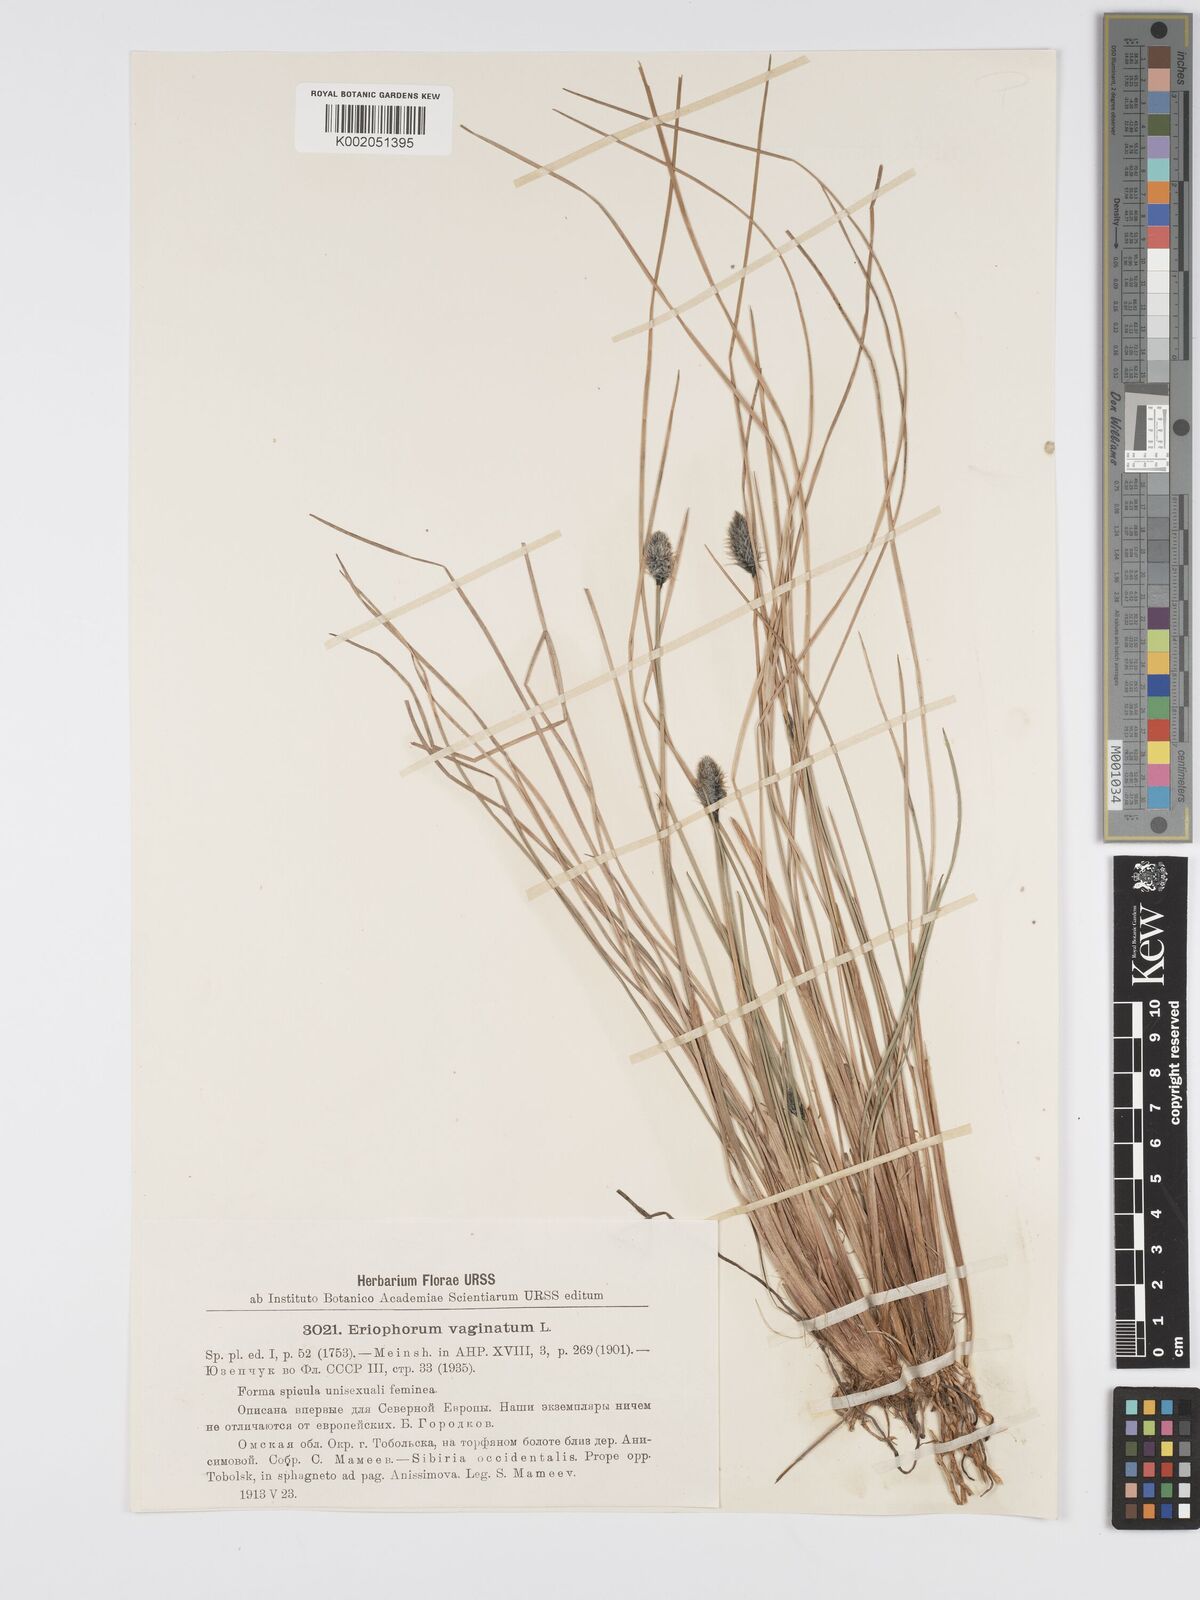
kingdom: Plantae
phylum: Tracheophyta
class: Liliopsida
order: Poales
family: Cyperaceae
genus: Eriophorum
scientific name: Eriophorum vaginatum
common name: Hare's-tail cottongrass
